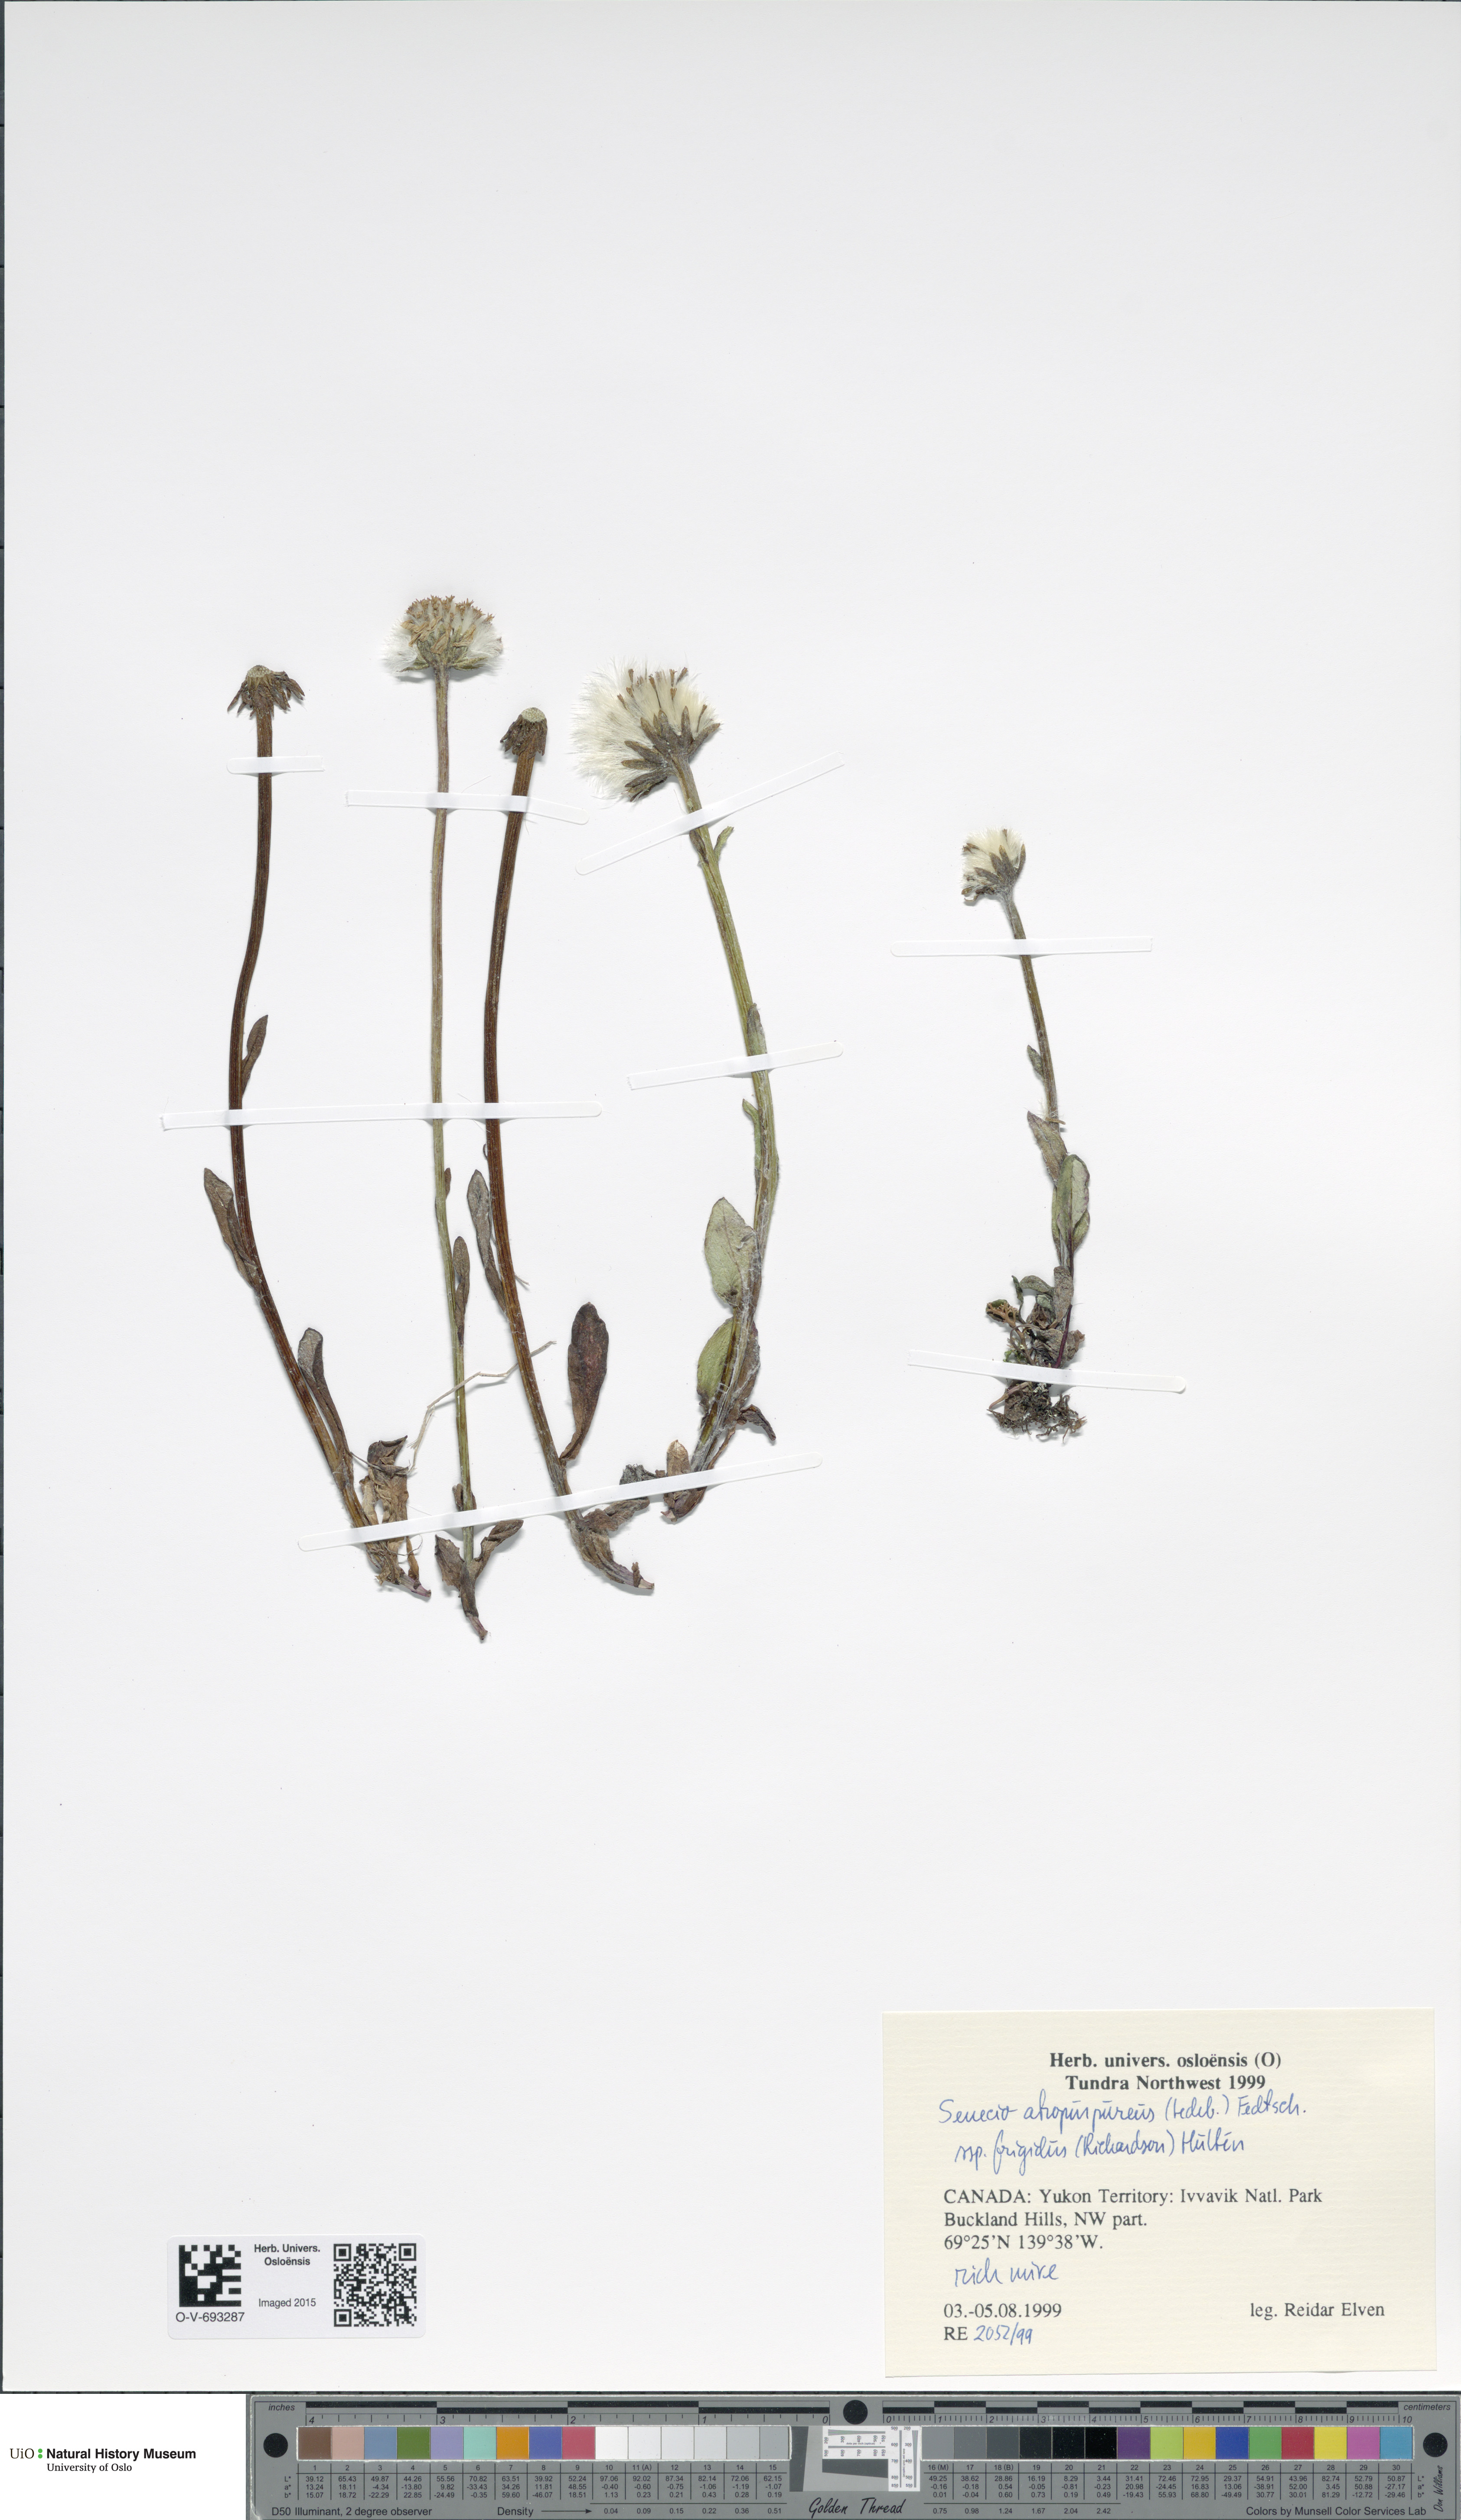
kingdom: Plantae
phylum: Tracheophyta
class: Magnoliopsida
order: Asterales
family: Asteraceae
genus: Tephroseris
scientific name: Tephroseris integrifolia
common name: Field fleawort
